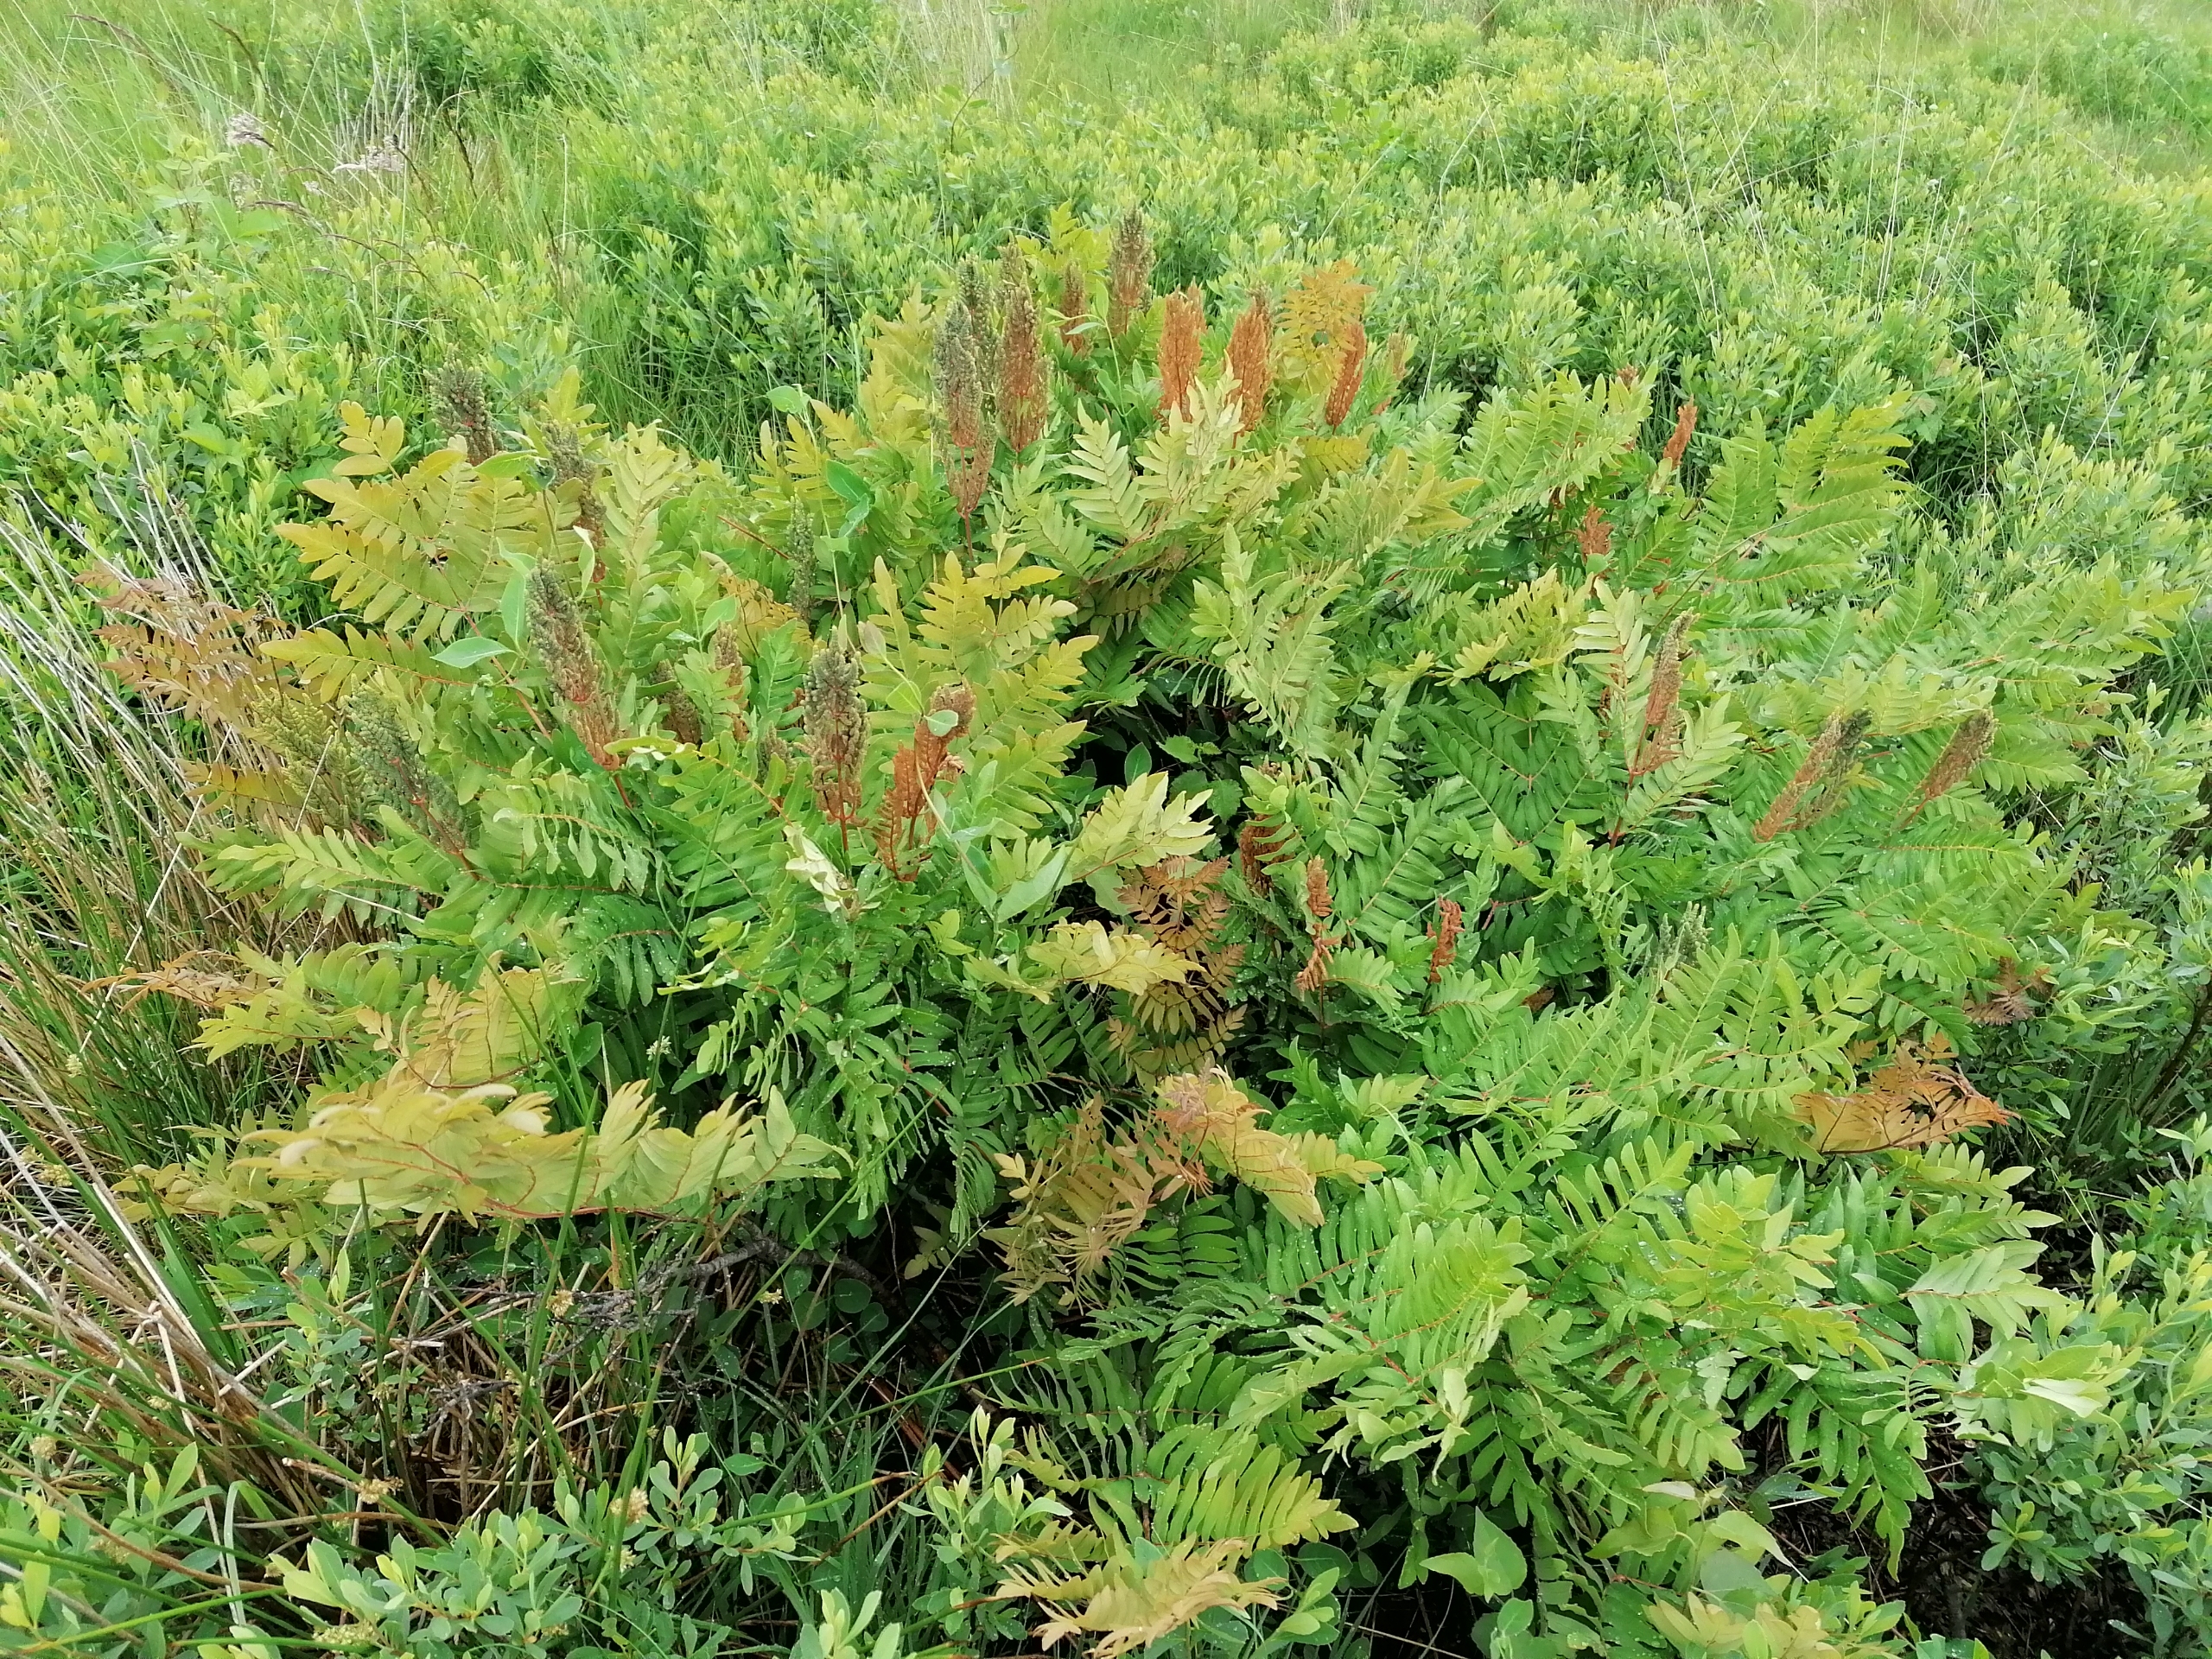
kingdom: Plantae
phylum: Tracheophyta
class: Polypodiopsida
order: Osmundales
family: Osmundaceae
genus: Osmunda
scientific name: Osmunda regalis
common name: Kongebregne
